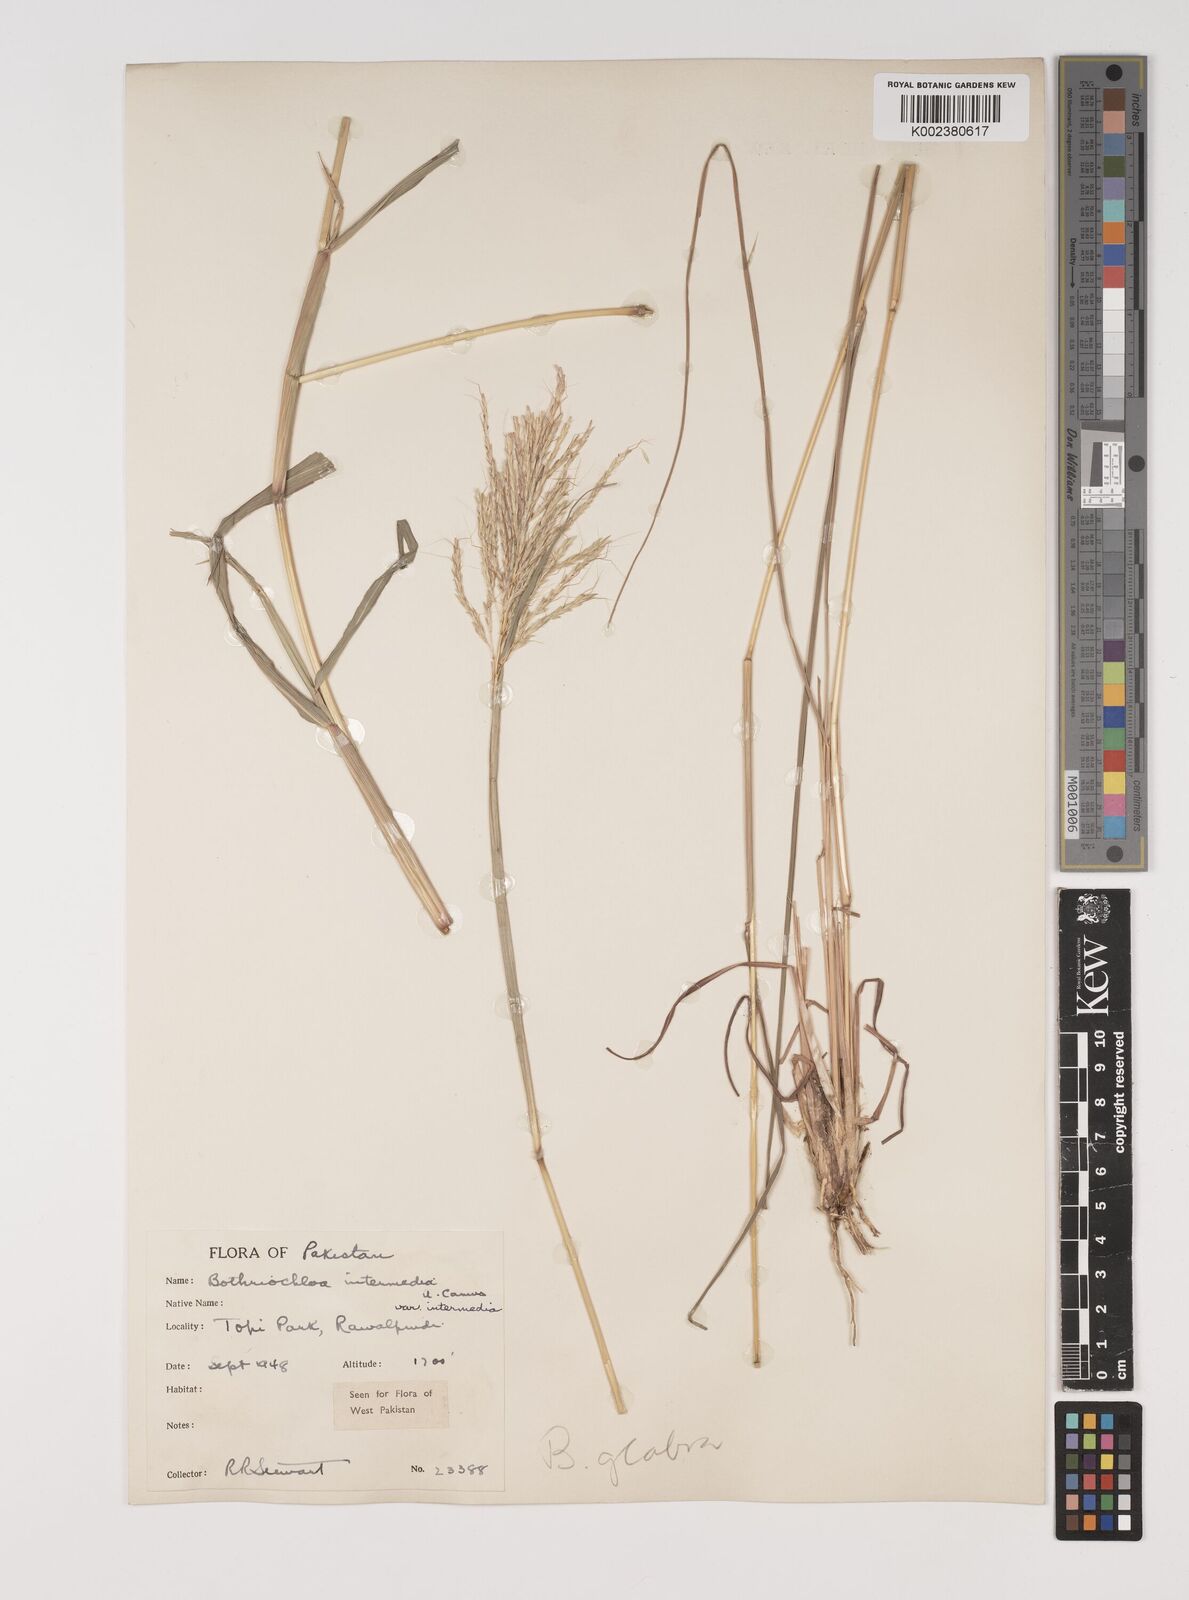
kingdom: Plantae
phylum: Tracheophyta
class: Liliopsida
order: Poales
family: Poaceae
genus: Bothriochloa
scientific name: Bothriochloa bladhii
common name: Caucasian bluestem
